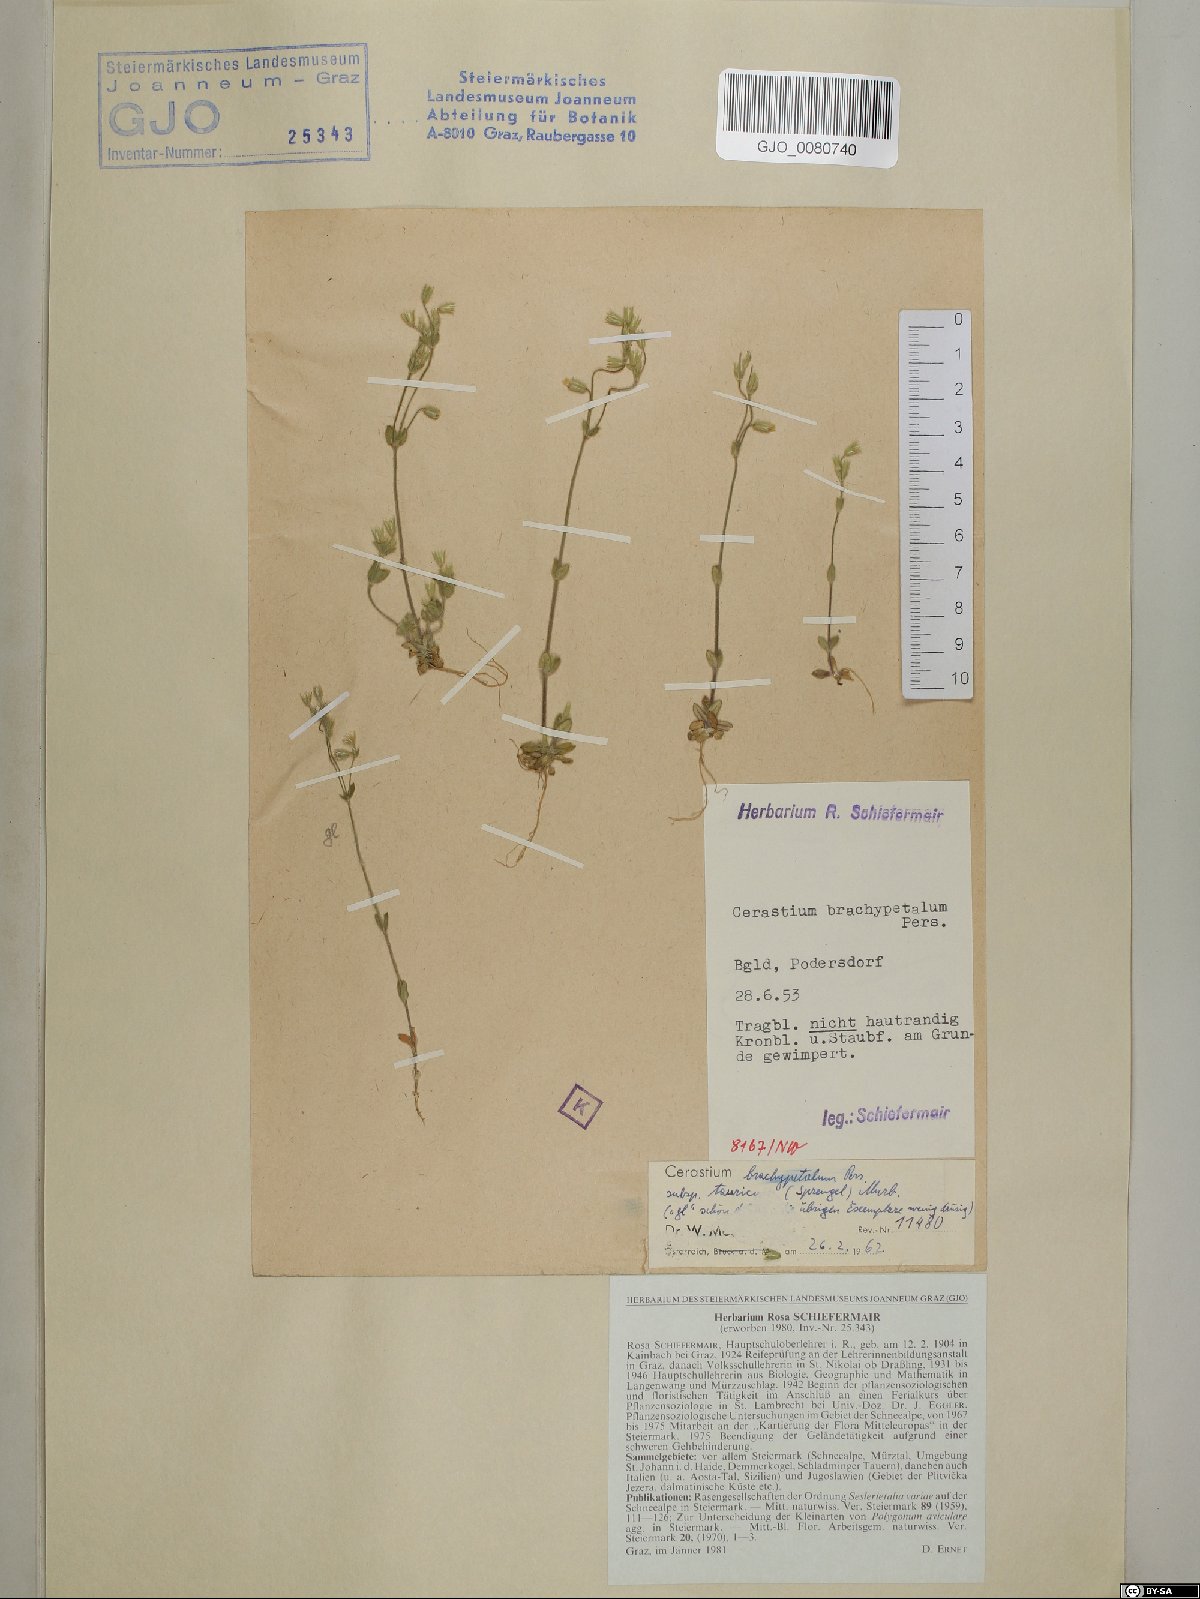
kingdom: Plantae
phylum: Tracheophyta
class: Magnoliopsida
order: Caryophyllales
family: Caryophyllaceae
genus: Cerastium
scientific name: Cerastium brachypetalum
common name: Grey mouse-ear
